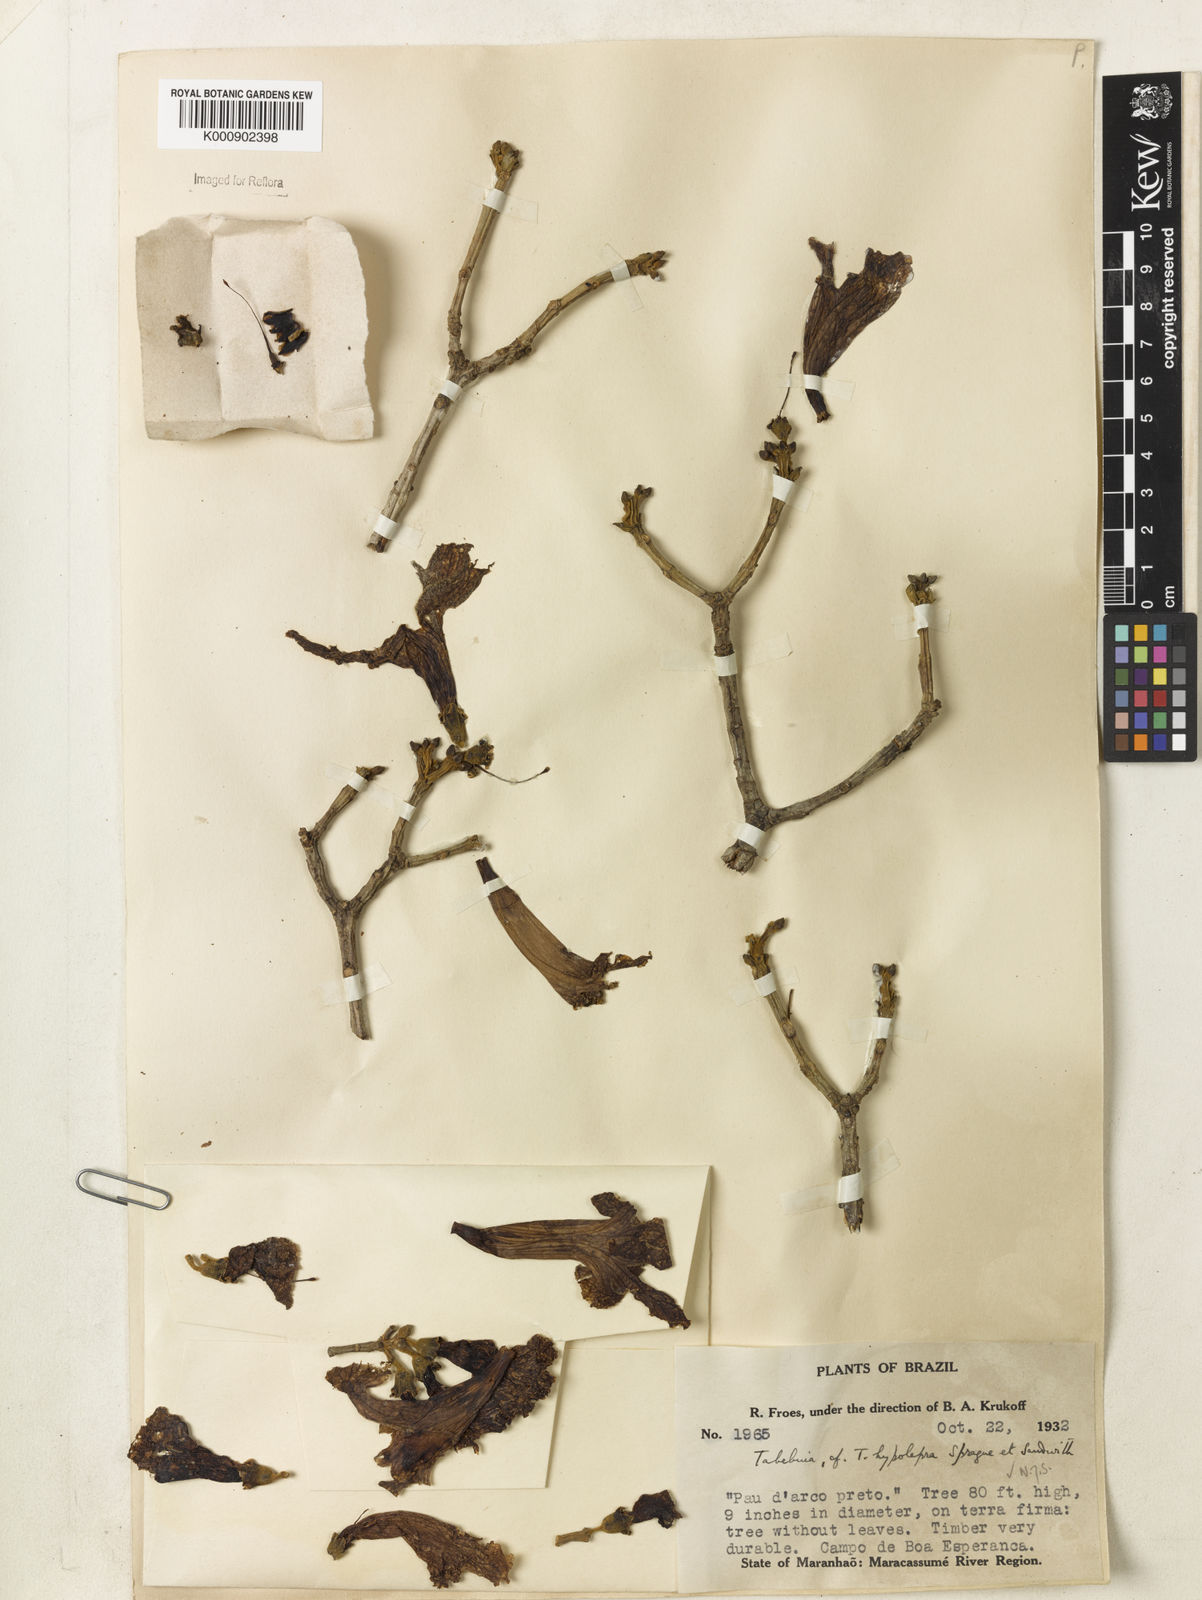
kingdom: Plantae
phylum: Tracheophyta
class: Magnoliopsida
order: Lamiales
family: Bignoniaceae
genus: Handroanthus
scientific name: Handroanthus capitatus
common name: Trumpet trees
